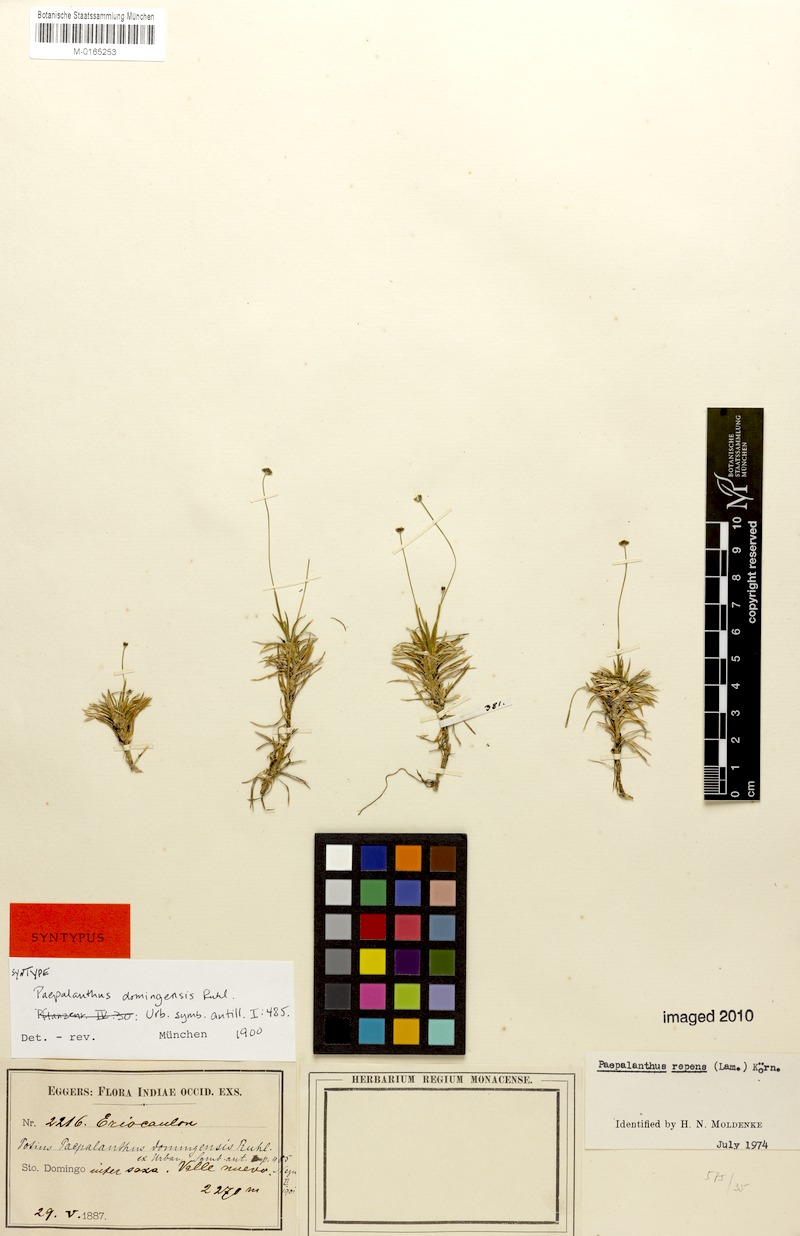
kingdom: Plantae
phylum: Tracheophyta
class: Liliopsida
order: Poales
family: Eriocaulaceae
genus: Paepalanthus
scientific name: Paepalanthus repens
